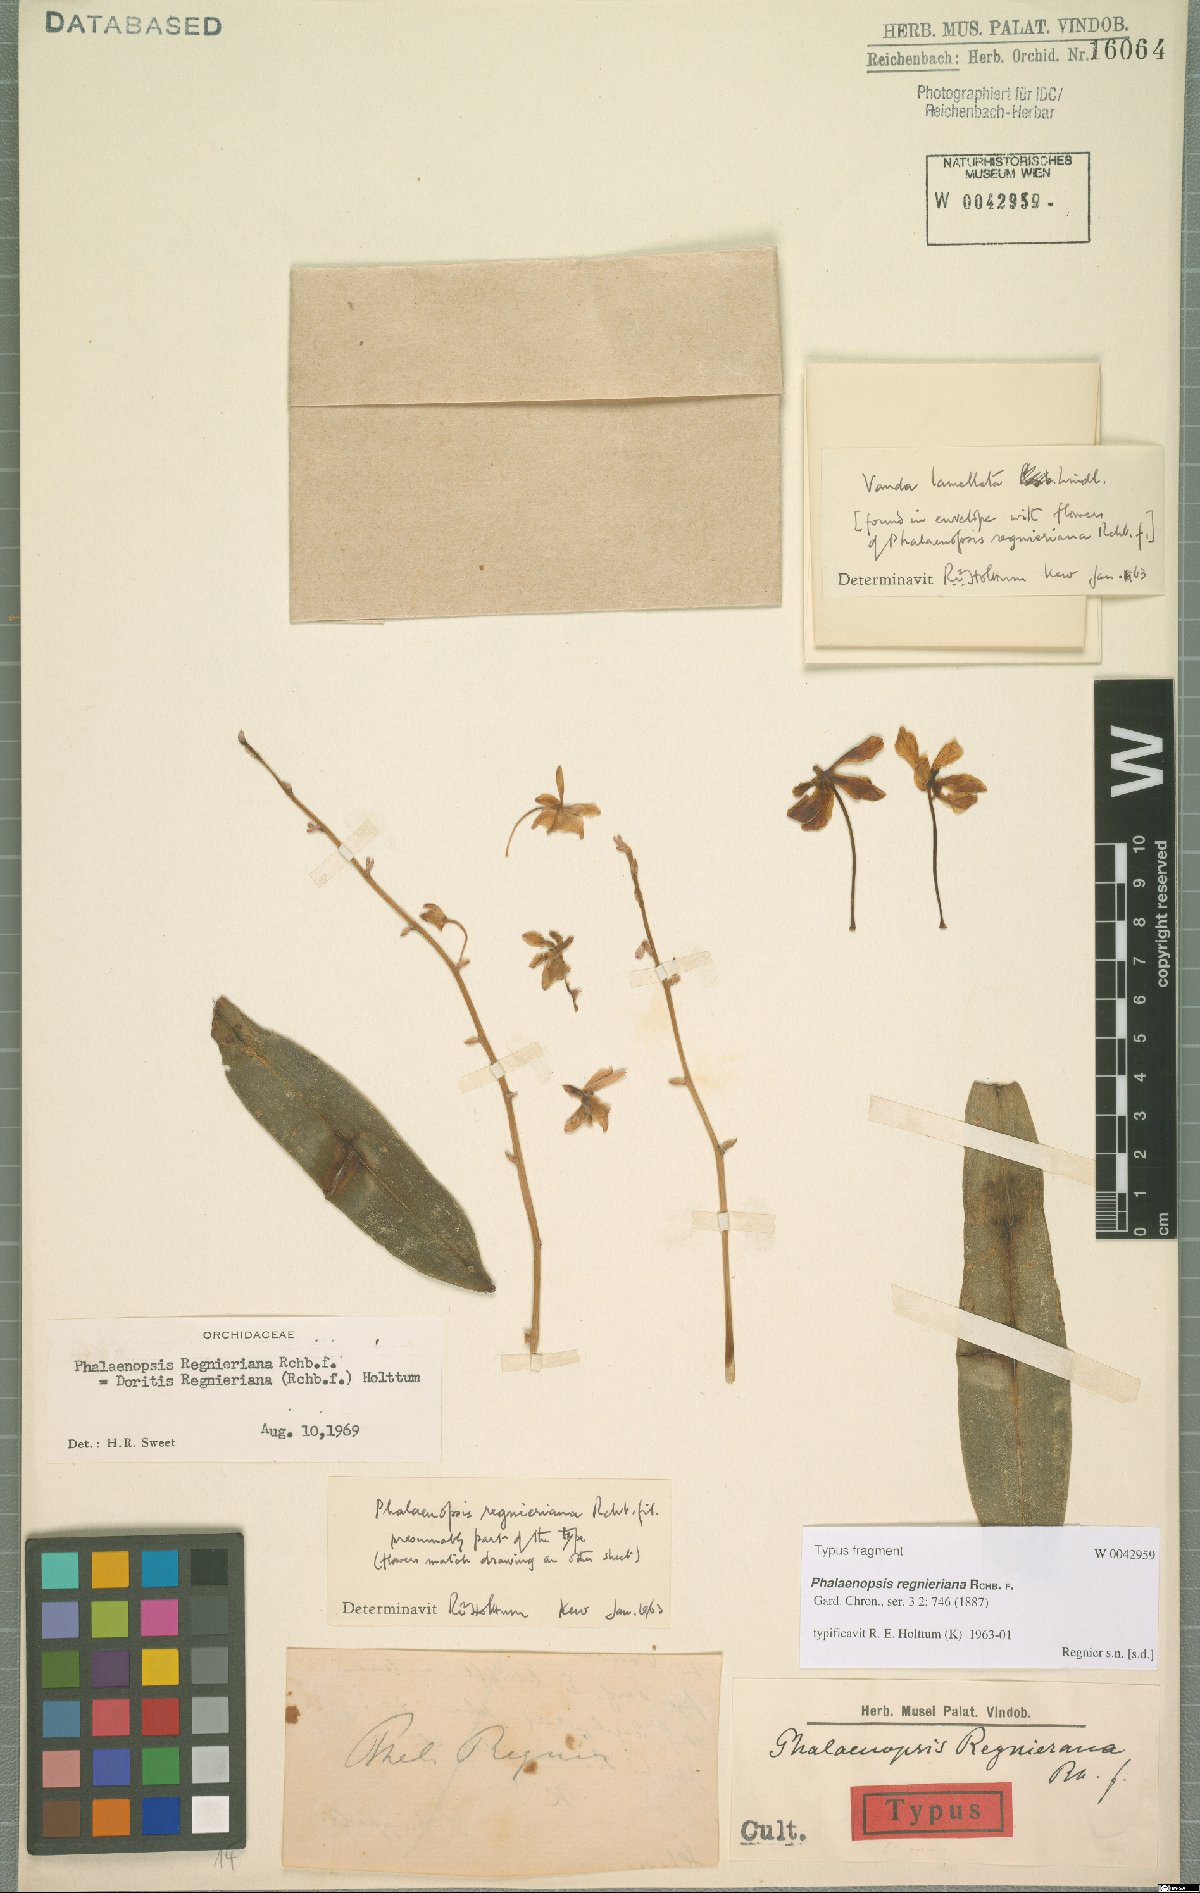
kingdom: Plantae
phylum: Tracheophyta
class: Liliopsida
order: Asparagales
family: Orchidaceae
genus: Phalaenopsis
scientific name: Phalaenopsis regnieriana
